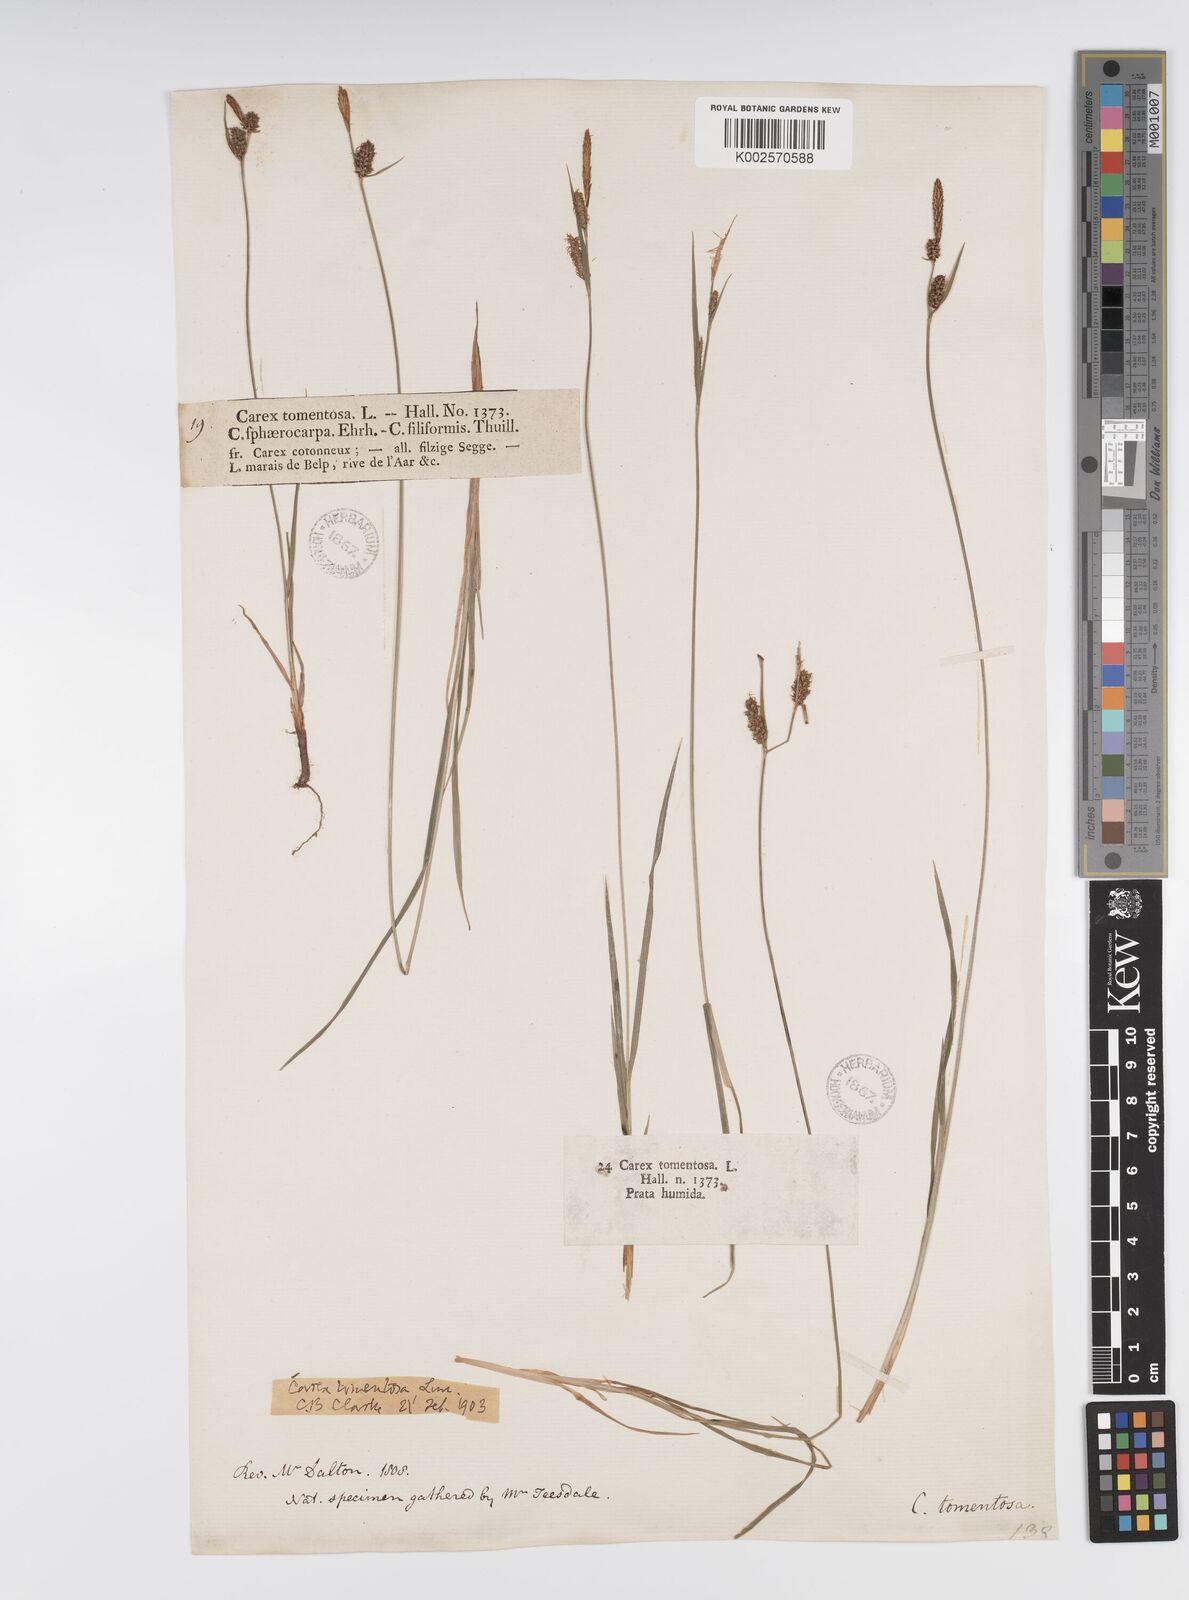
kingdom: Plantae
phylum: Tracheophyta
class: Liliopsida
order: Poales
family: Cyperaceae
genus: Carex
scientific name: Carex montana
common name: Soft-leaved sedge
